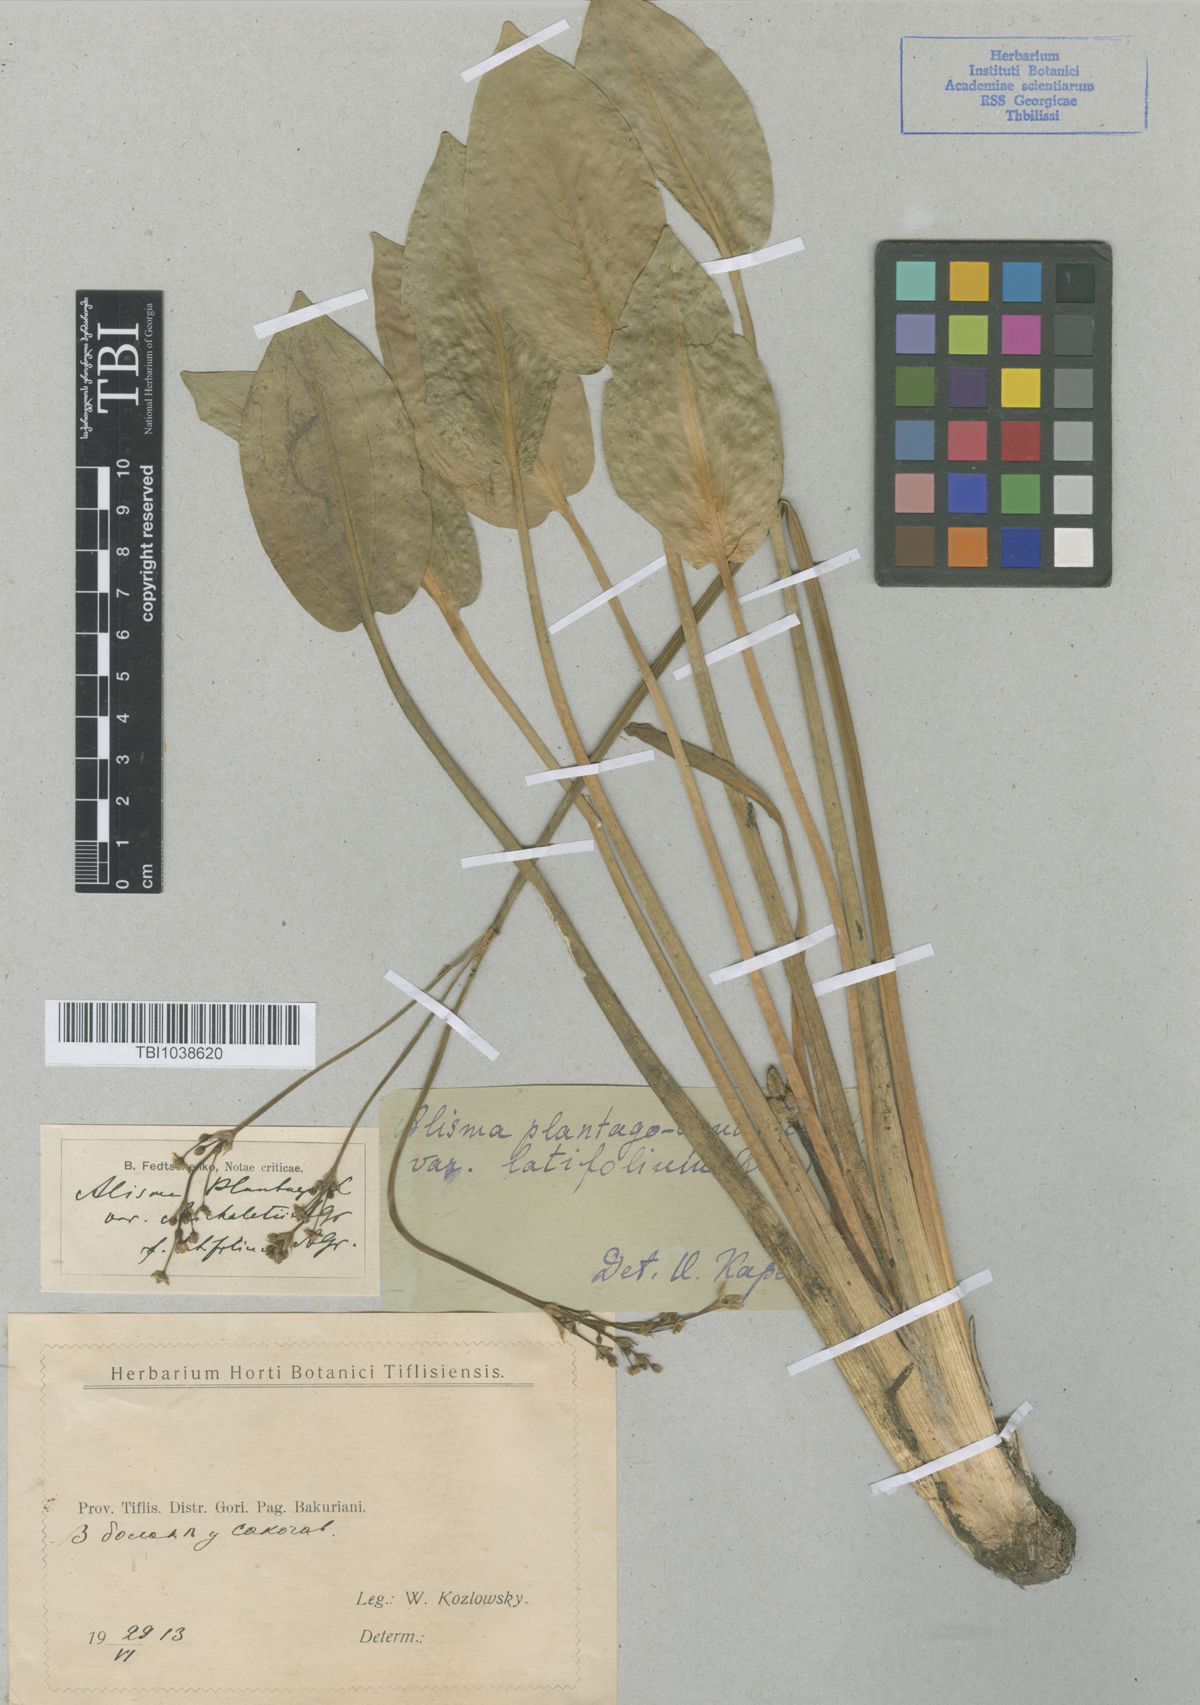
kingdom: Plantae
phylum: Tracheophyta
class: Liliopsida
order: Alismatales
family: Alismataceae
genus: Alisma
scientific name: Alisma plantago-aquatica
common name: Water-plantain
